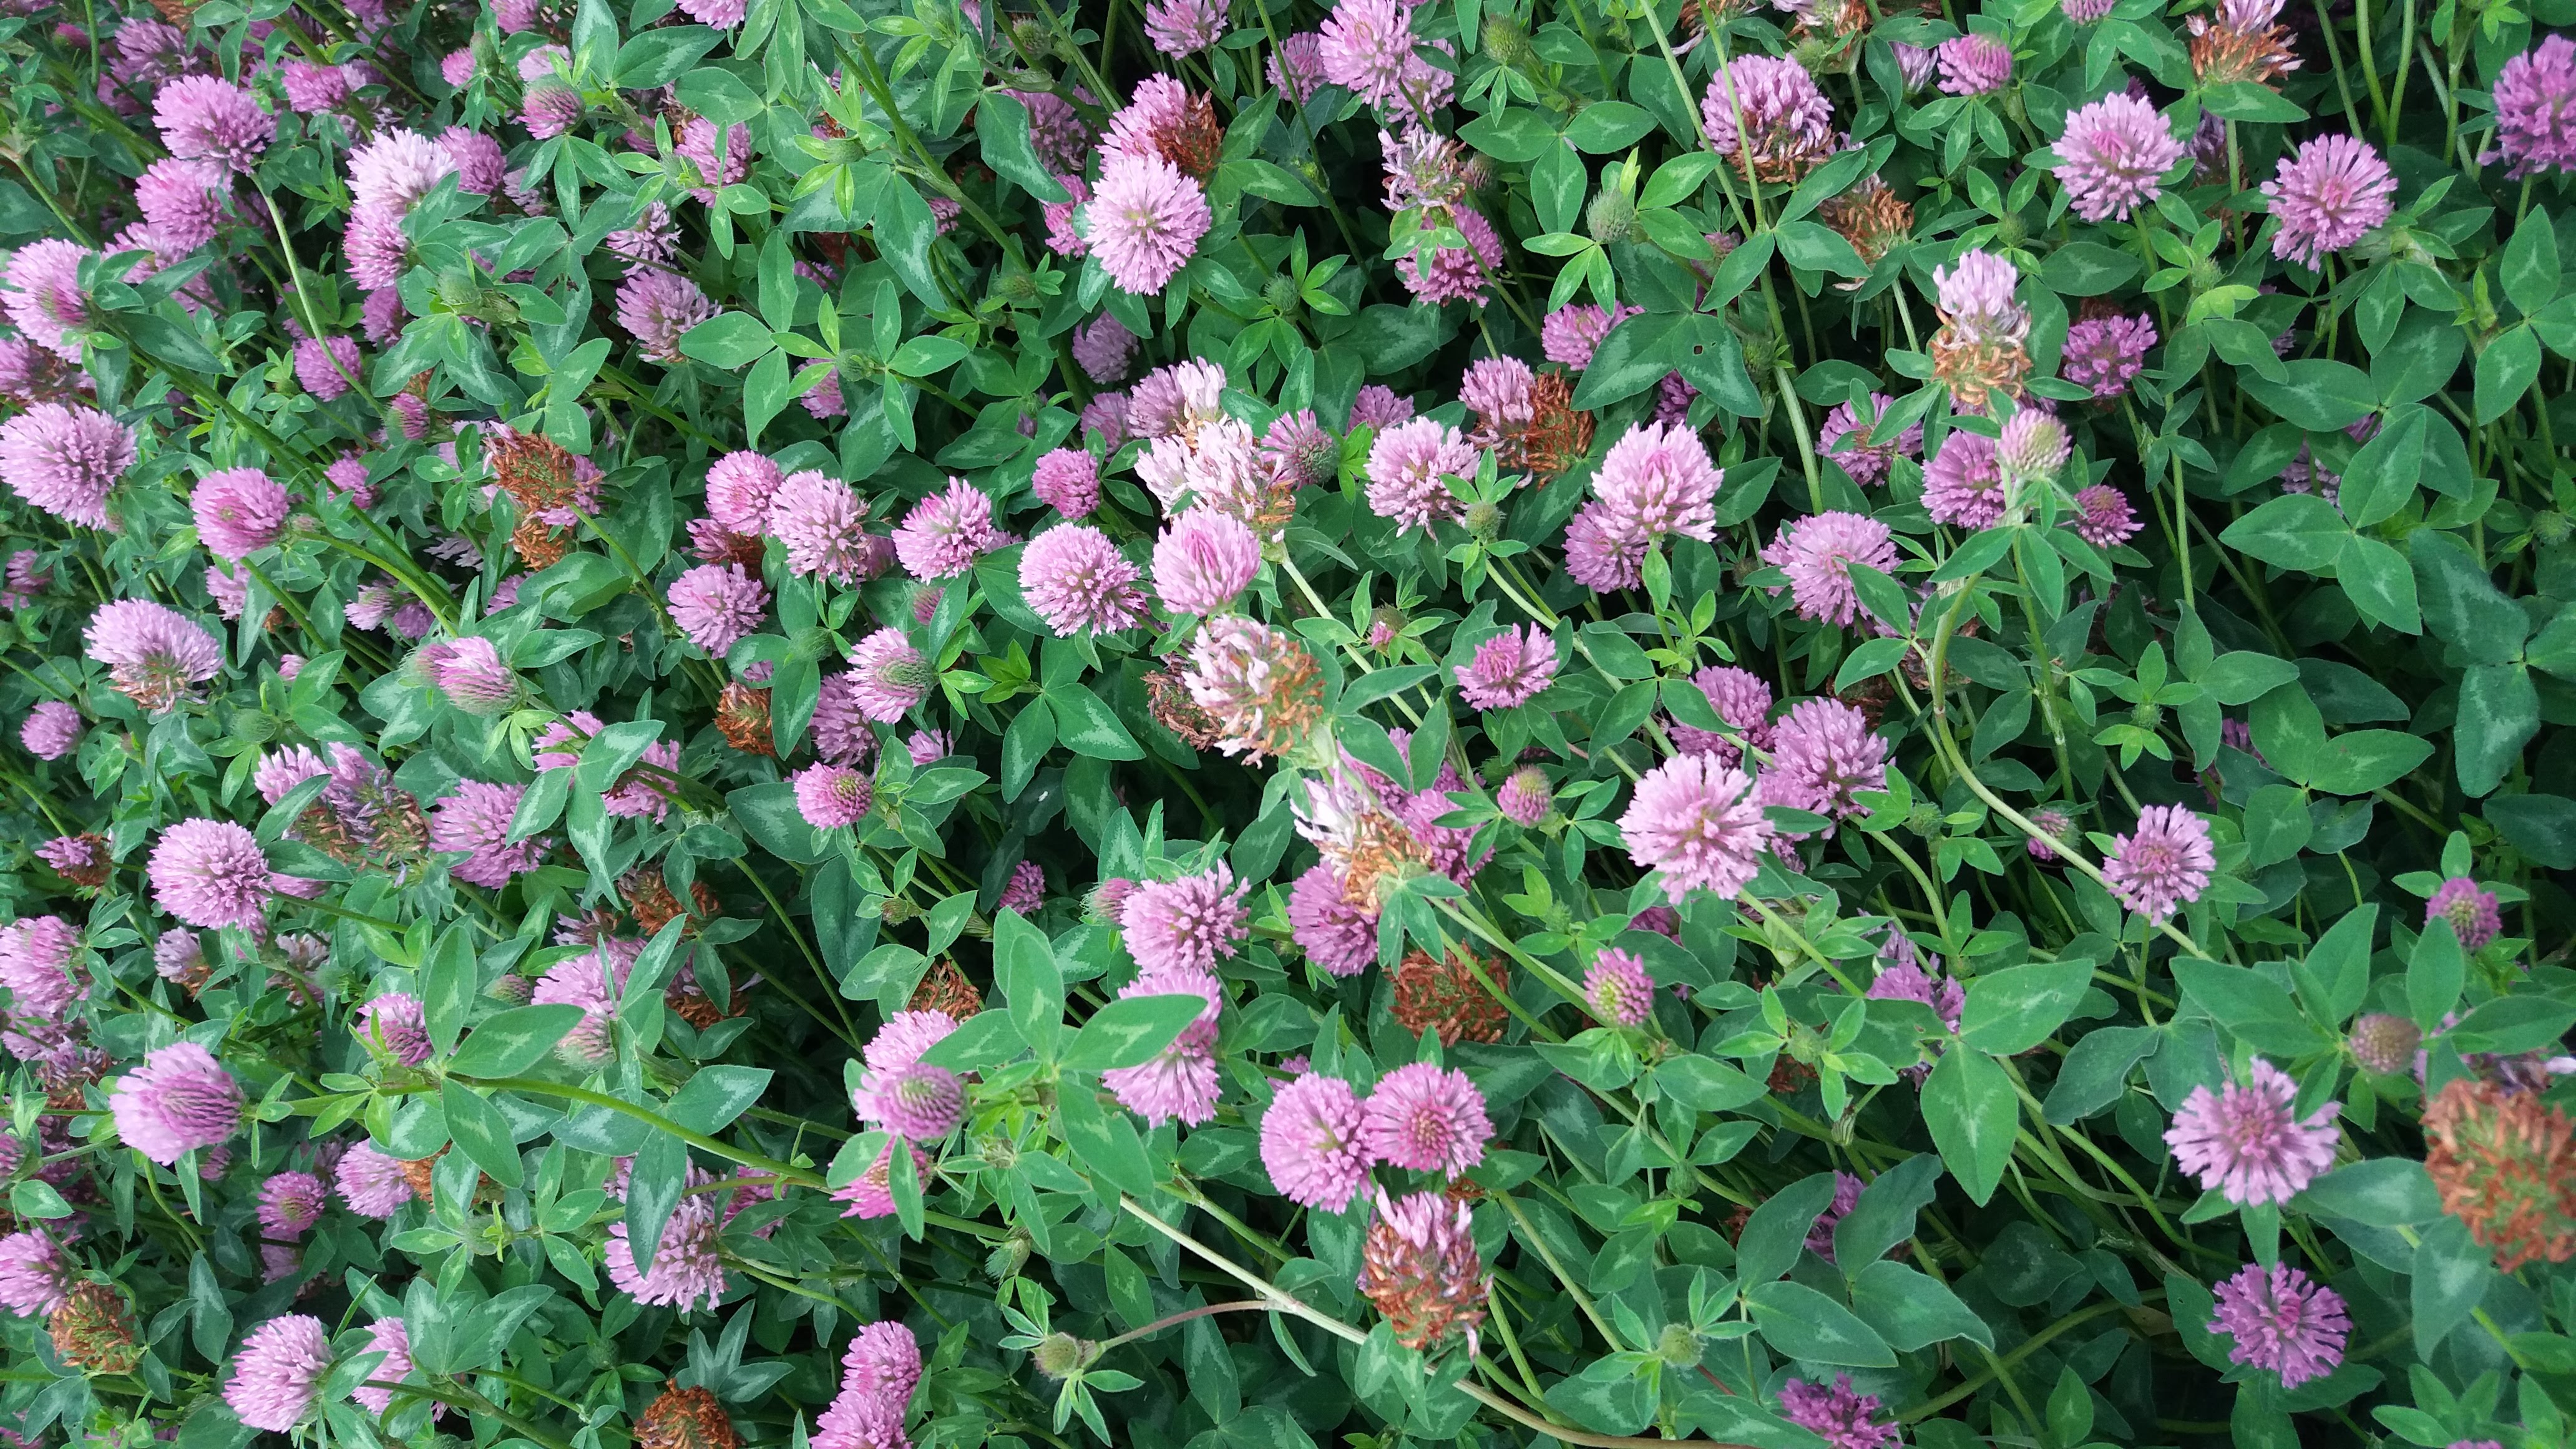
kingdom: Plantae
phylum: Tracheophyta
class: Magnoliopsida
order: Fabales
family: Fabaceae
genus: Trifolium
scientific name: Trifolium pratense
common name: Red clover
